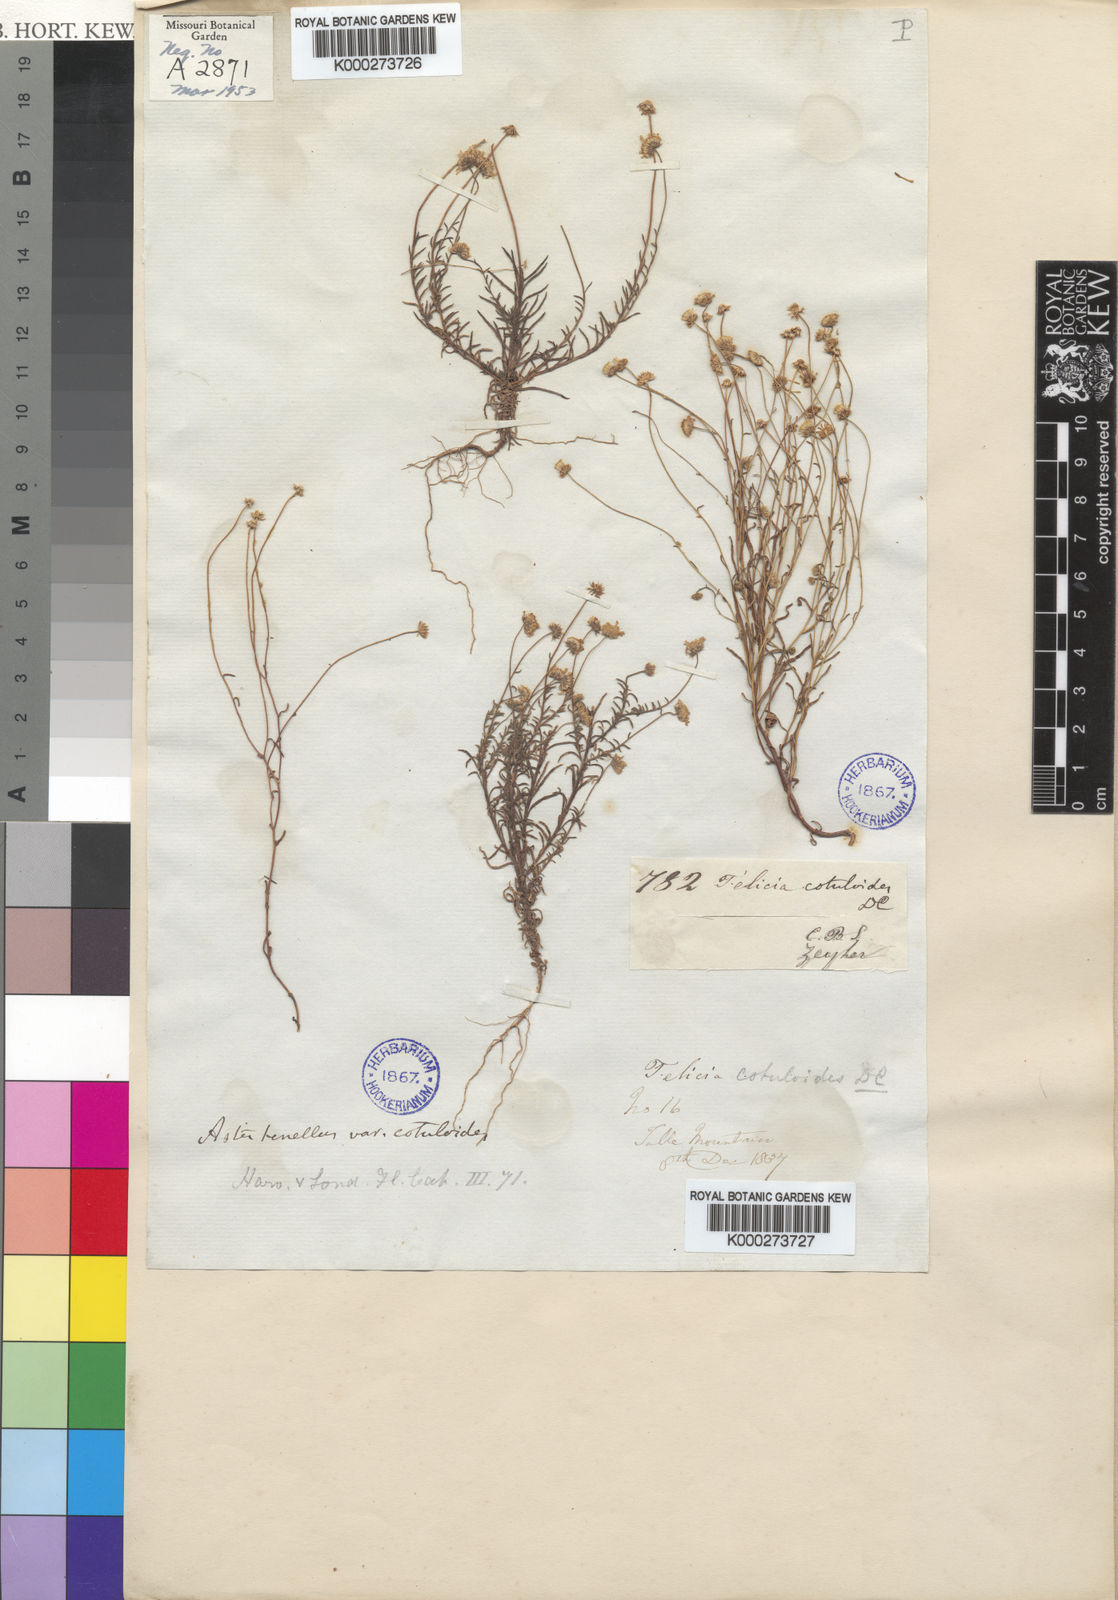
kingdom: Plantae
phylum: Tracheophyta
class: Magnoliopsida
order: Asterales
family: Asteraceae
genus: Felicia
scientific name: Felicia tenella
